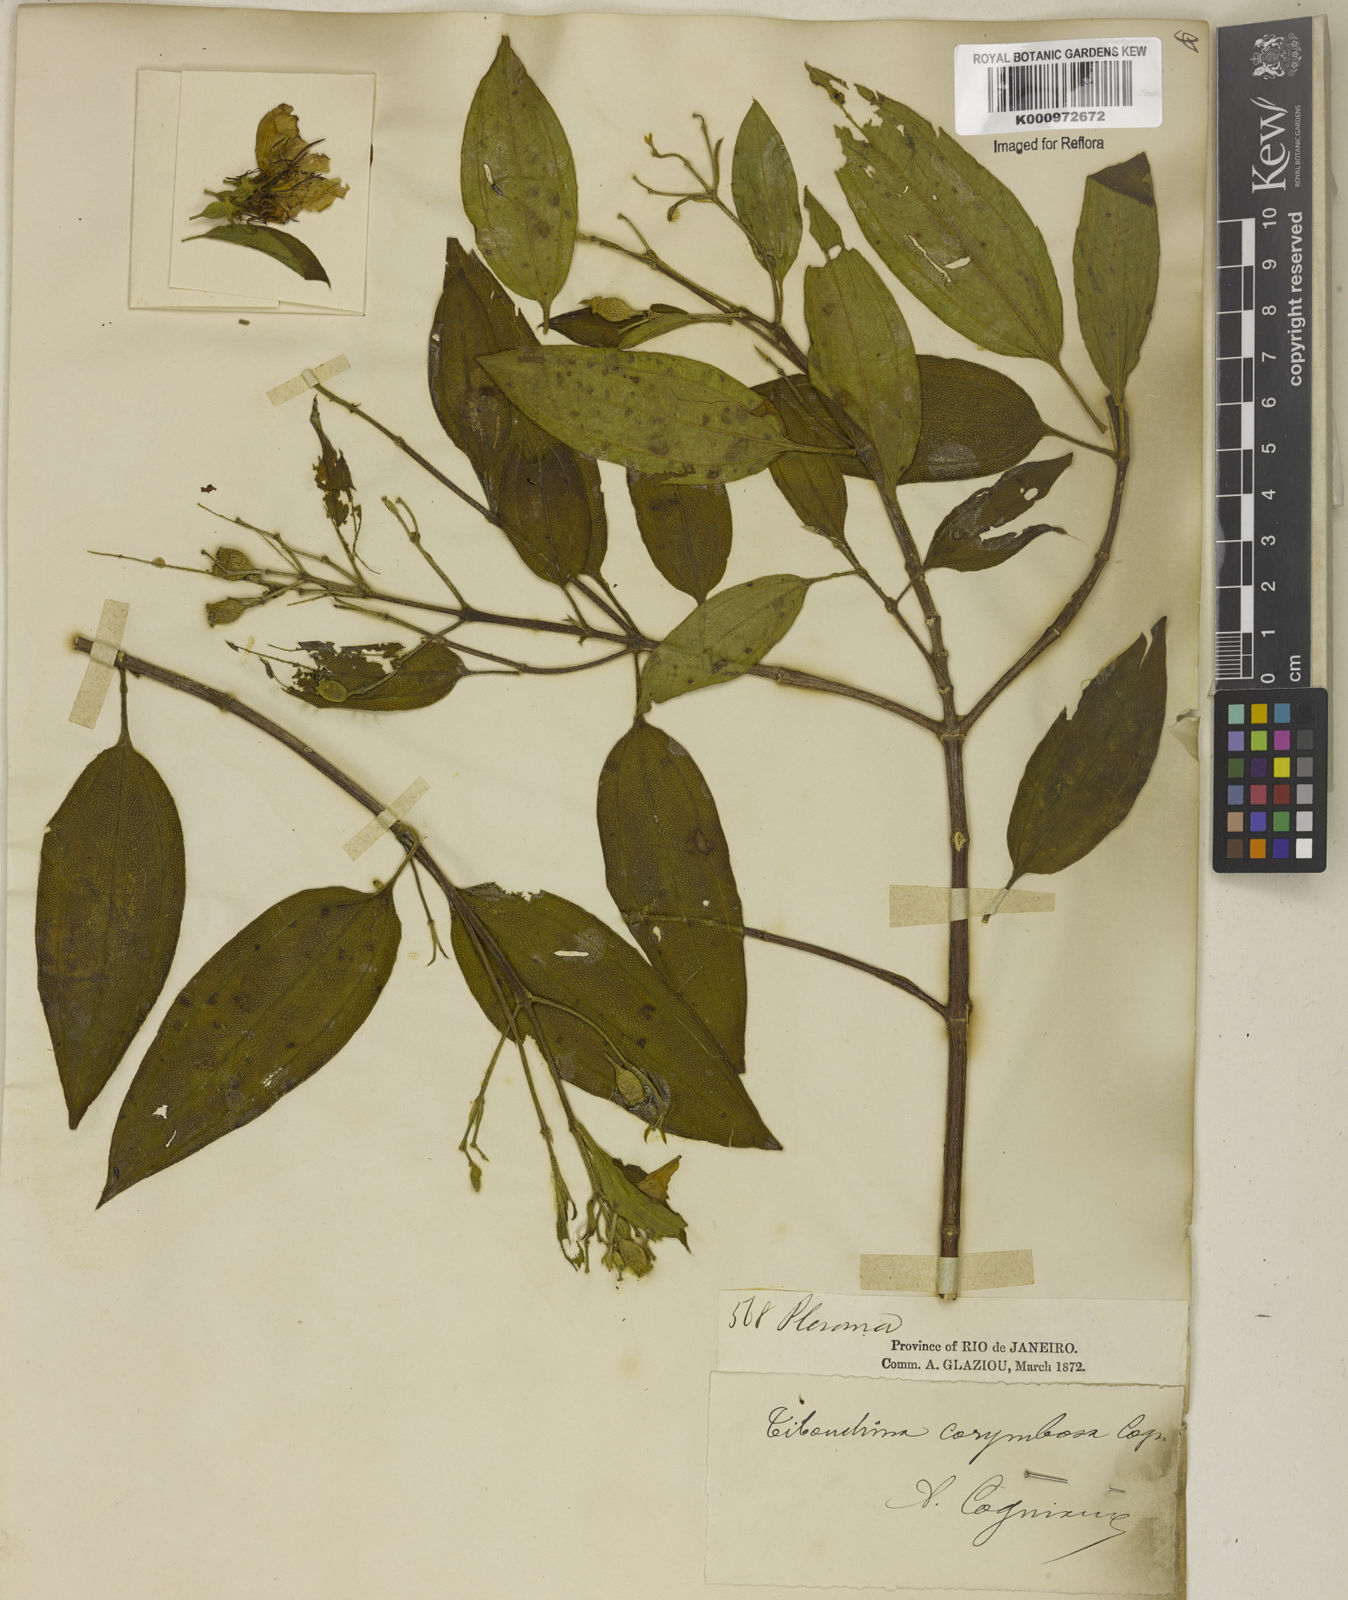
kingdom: Plantae
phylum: Tracheophyta
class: Magnoliopsida
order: Myrtales
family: Melastomataceae
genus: Pleroma
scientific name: Pleroma vimineum
